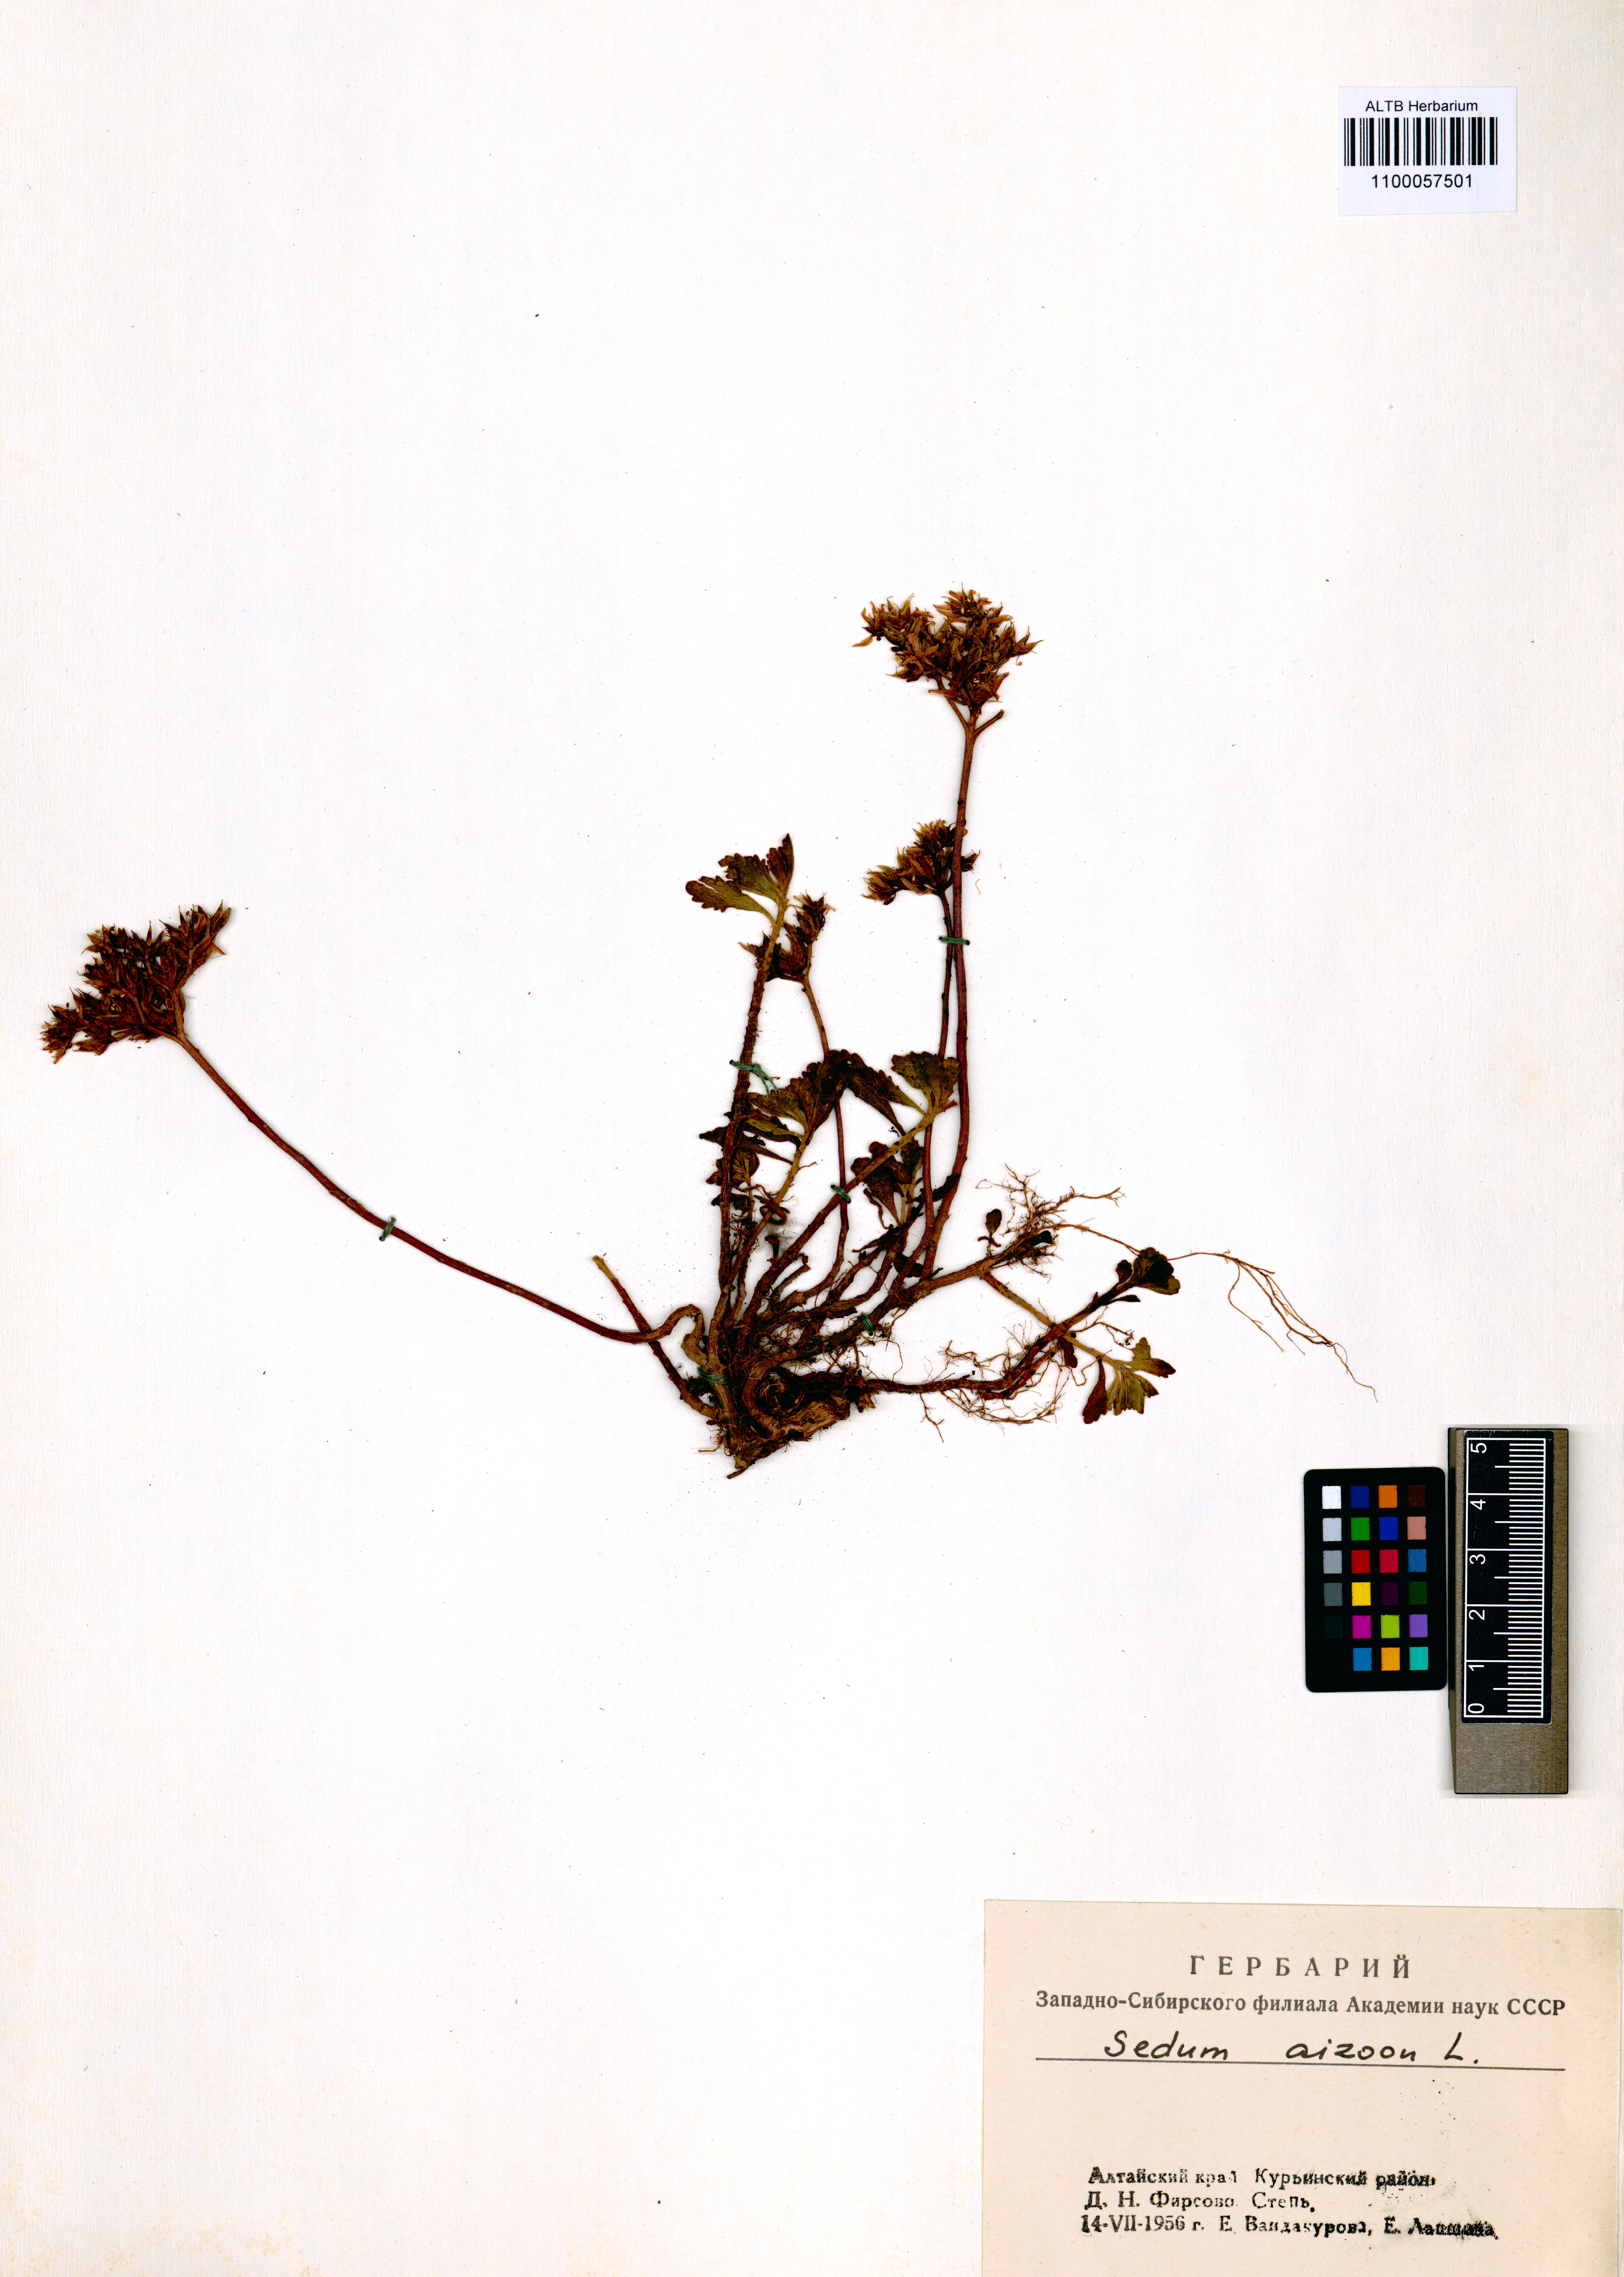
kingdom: Plantae
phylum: Tracheophyta
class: Magnoliopsida
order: Saxifragales
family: Crassulaceae
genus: Phedimus
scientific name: Phedimus aizoon
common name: Orpin aizoon
